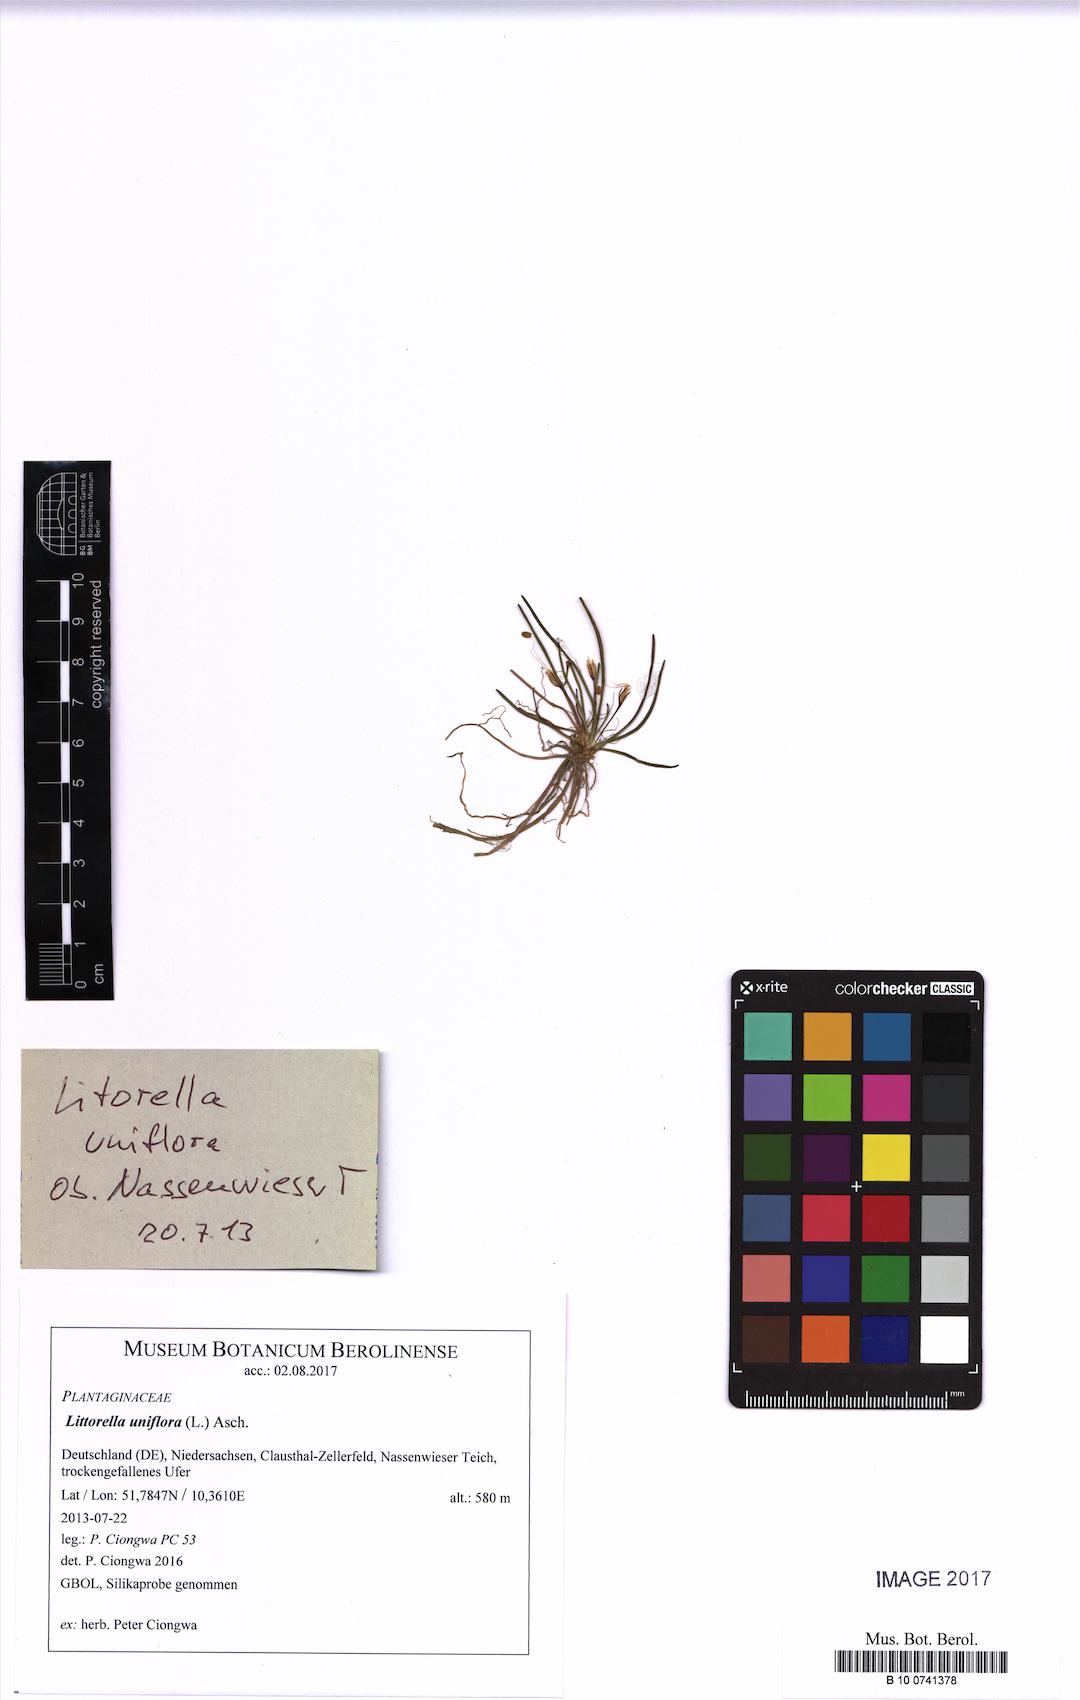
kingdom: Plantae
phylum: Tracheophyta
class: Magnoliopsida
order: Lamiales
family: Plantaginaceae
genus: Littorella
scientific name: Littorella uniflora
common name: Shoreweed
